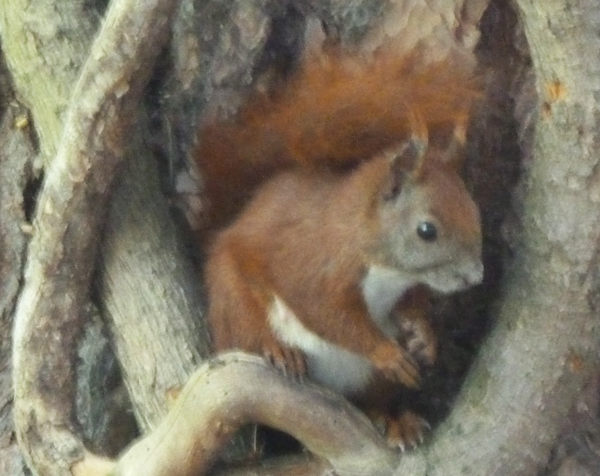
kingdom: Animalia
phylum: Chordata
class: Mammalia
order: Rodentia
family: Sciuridae
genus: Sciurus
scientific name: Sciurus vulgaris
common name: Eurasian red squirrel
